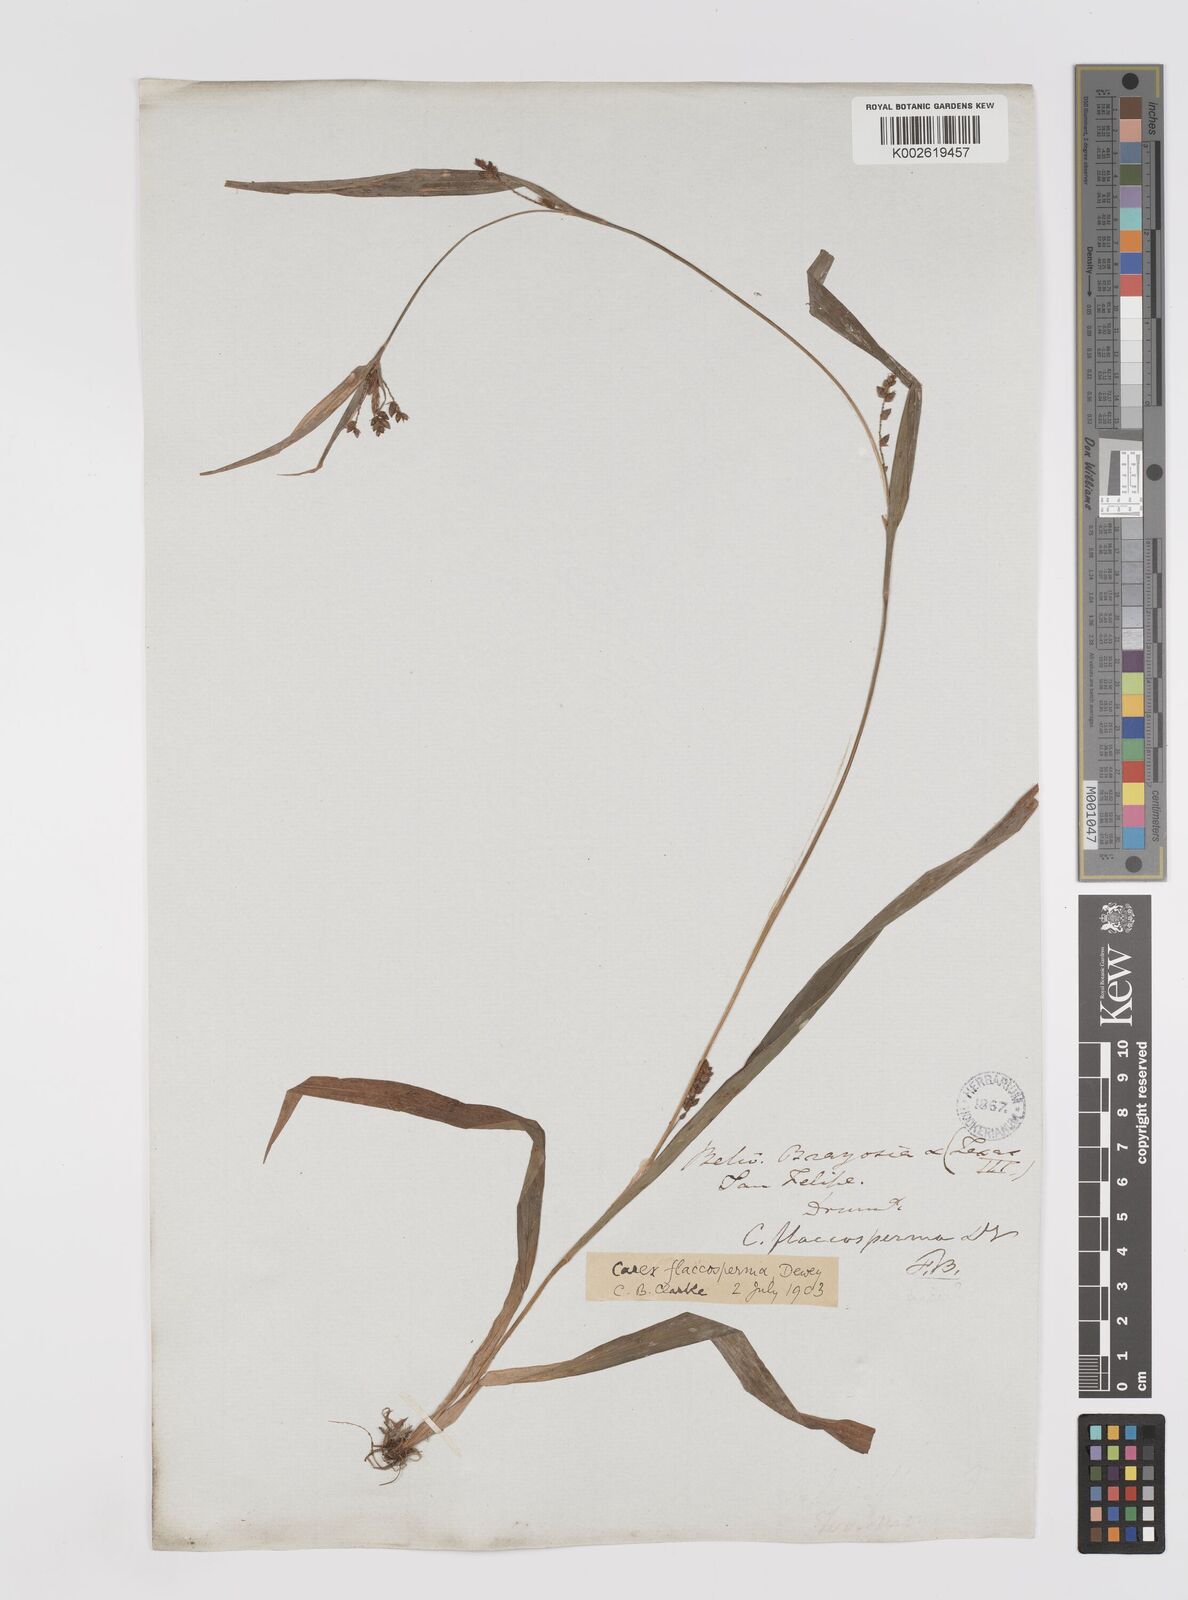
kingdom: Plantae
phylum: Tracheophyta
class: Liliopsida
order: Poales
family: Cyperaceae
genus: Carex
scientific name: Carex flaccosperma
